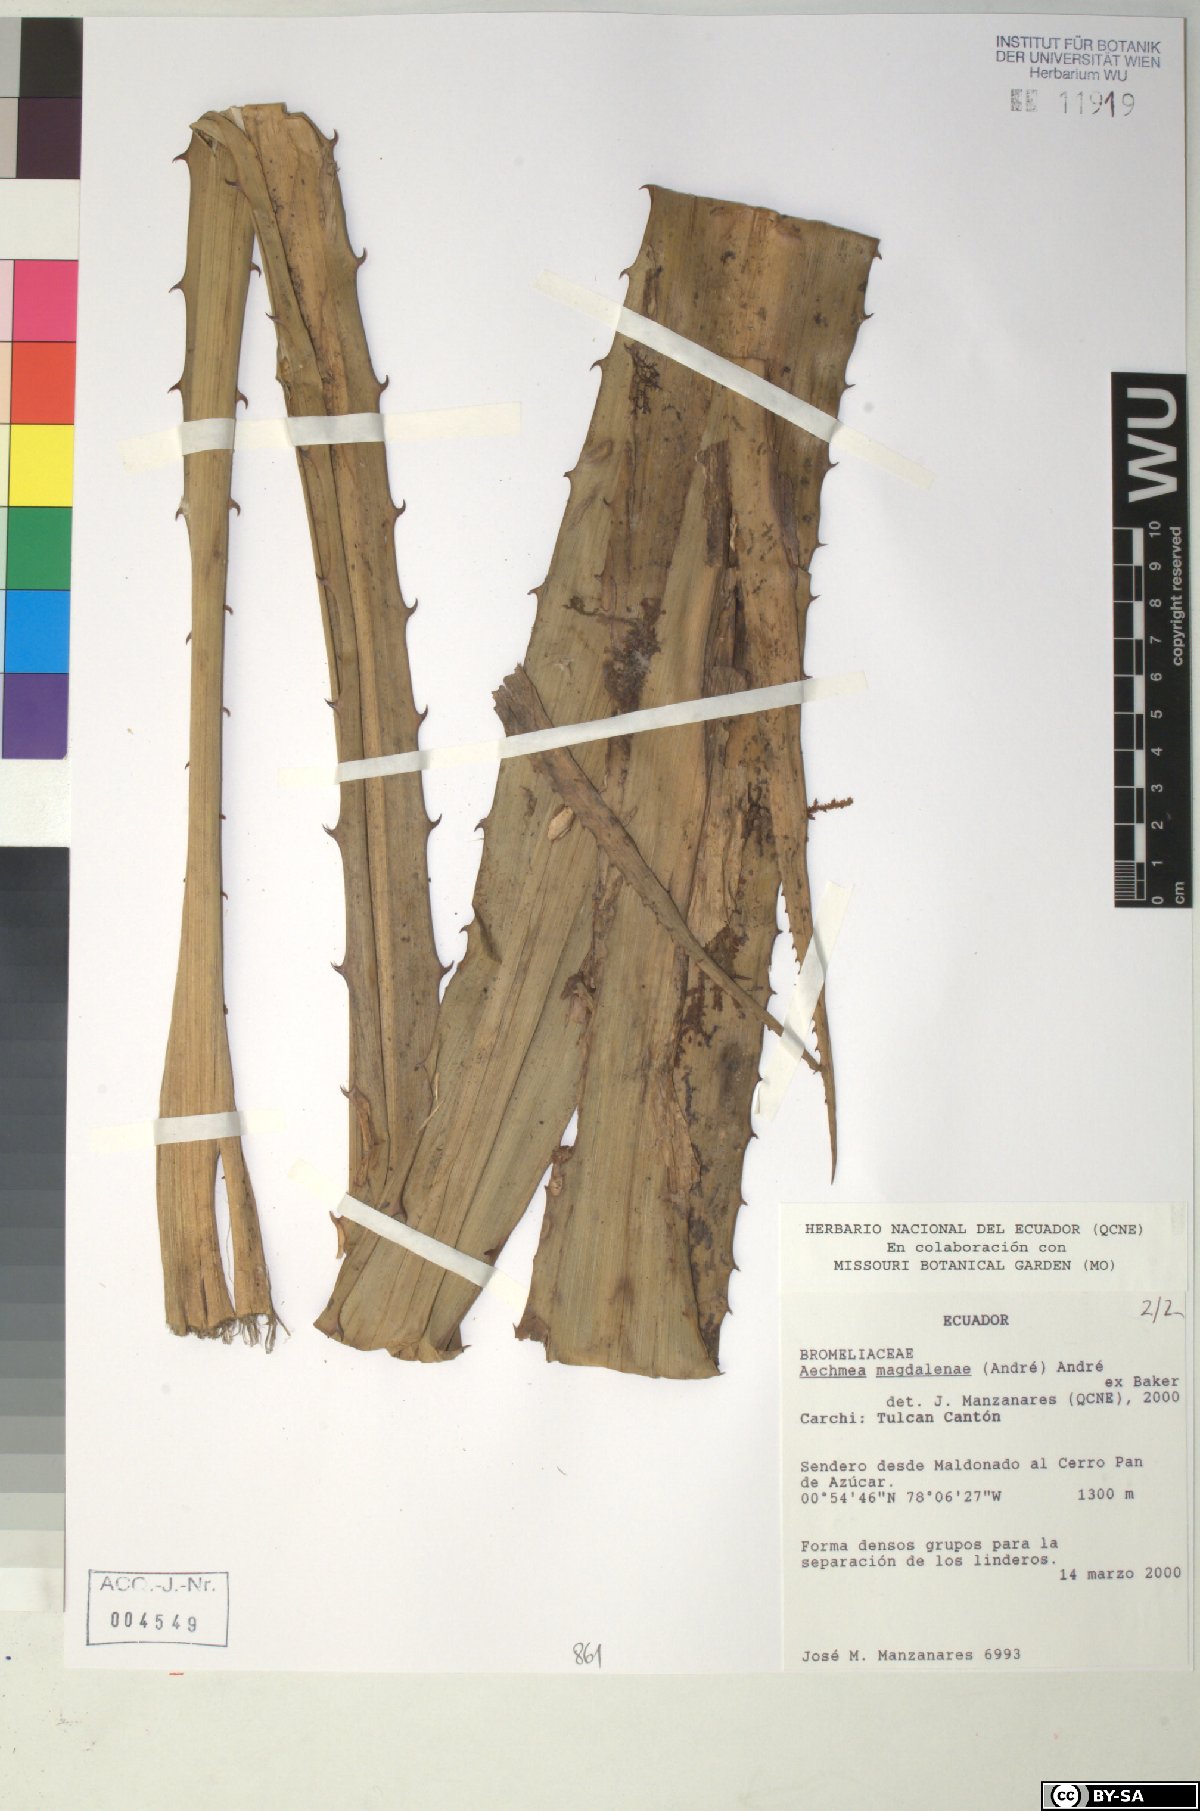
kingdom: Plantae
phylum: Tracheophyta
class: Liliopsida
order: Poales
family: Bromeliaceae
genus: Aechmea
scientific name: Aechmea magdalenae
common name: Arghan
